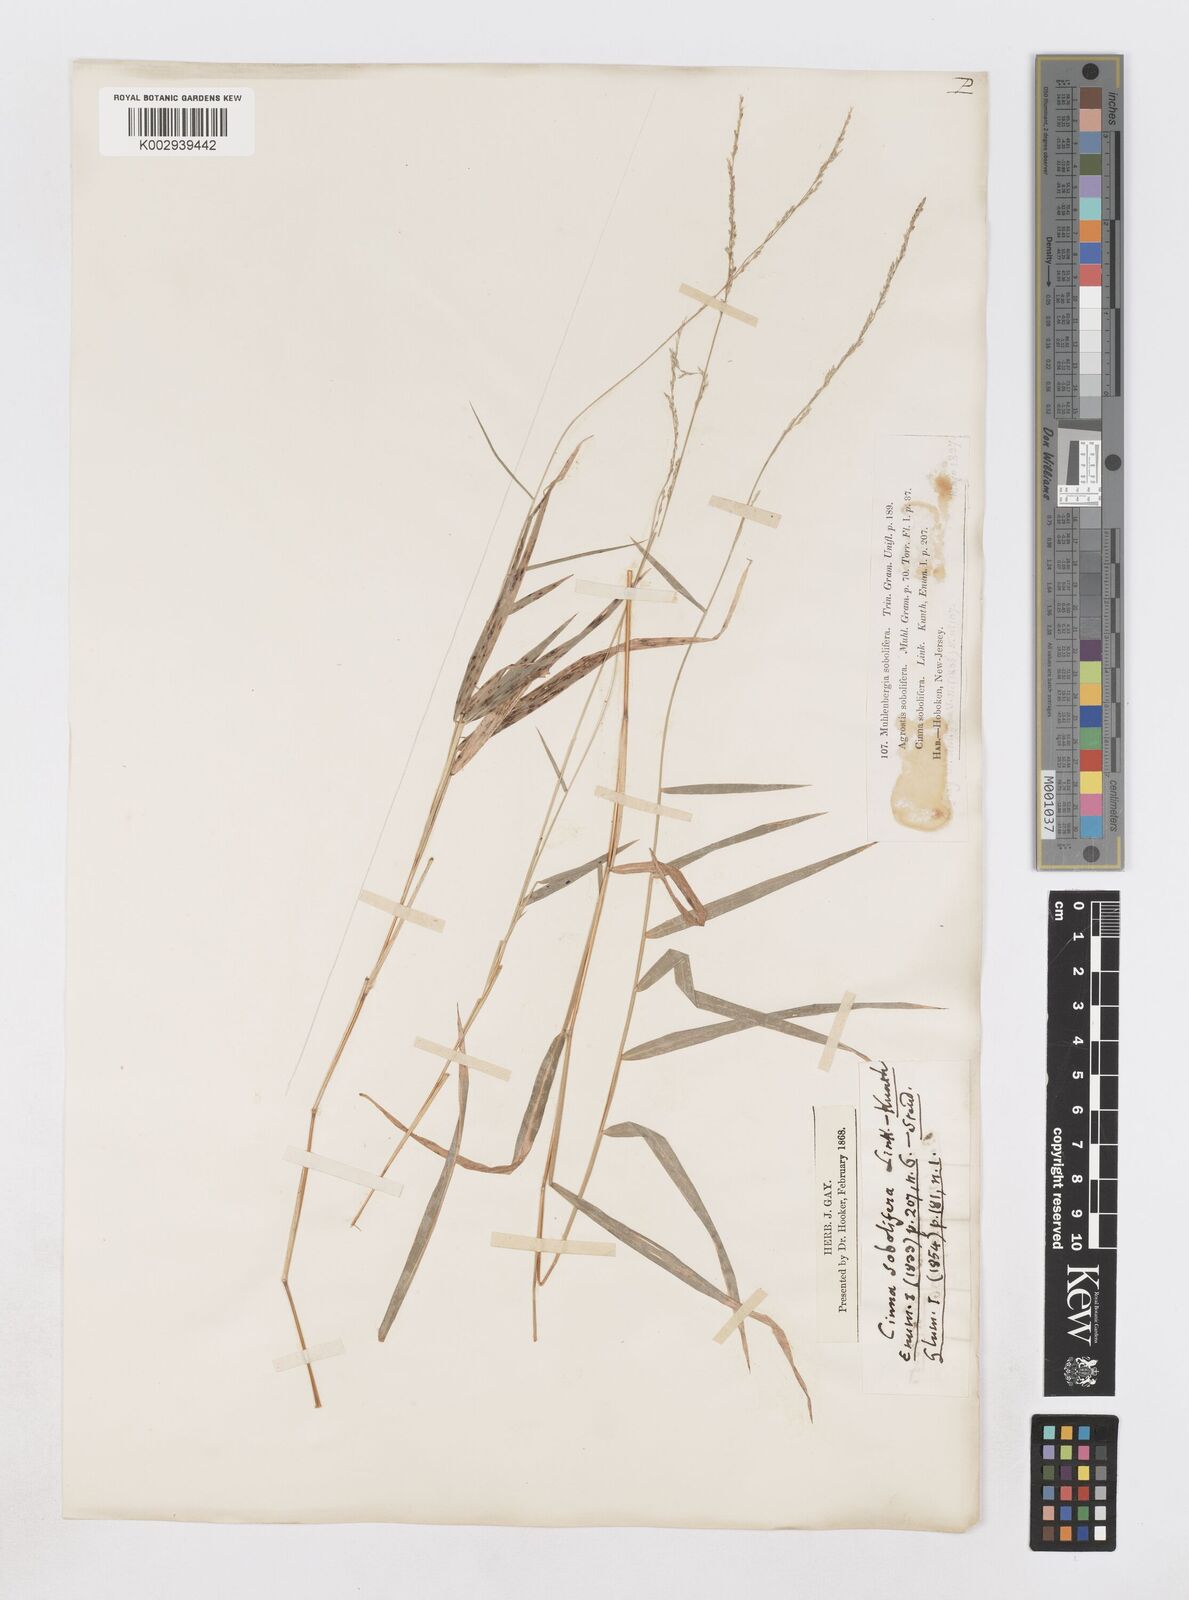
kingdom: Plantae
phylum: Tracheophyta
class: Liliopsida
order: Poales
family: Poaceae
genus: Muhlenbergia
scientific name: Muhlenbergia sobolifera
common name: Creeping muhly
